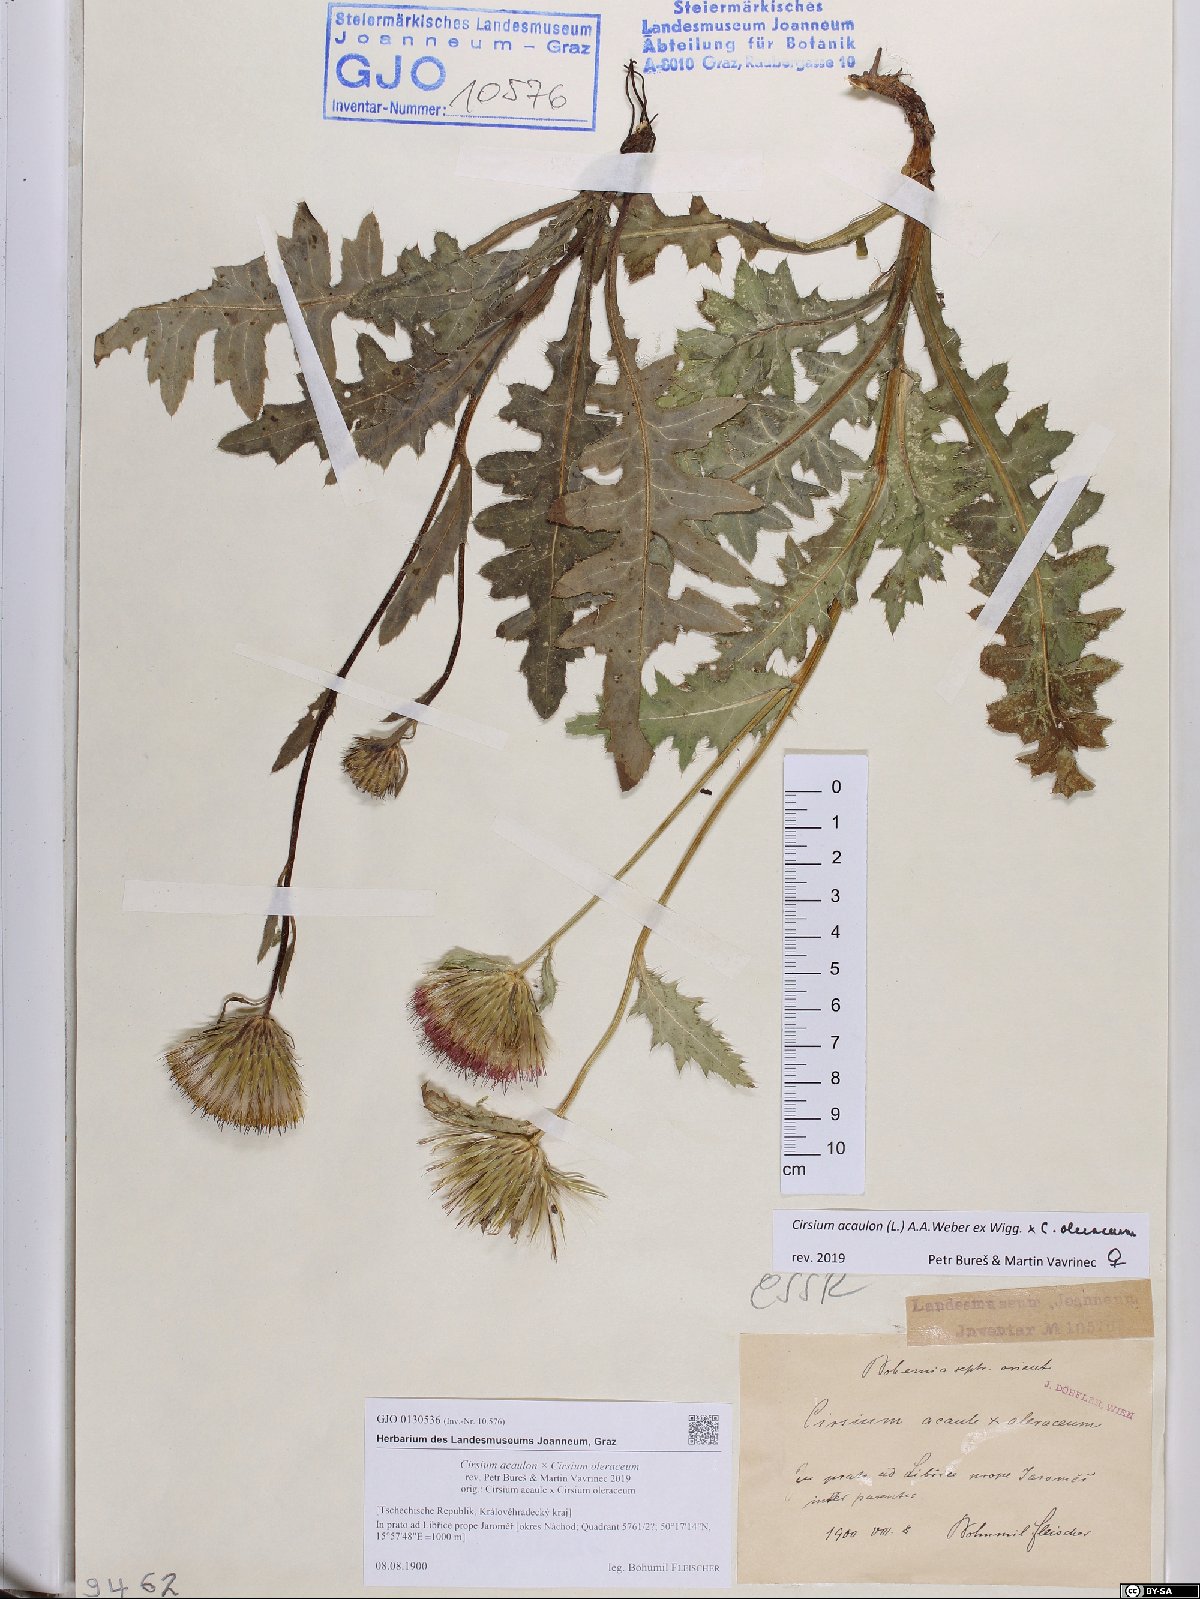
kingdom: Plantae
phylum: Tracheophyta
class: Magnoliopsida
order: Asterales
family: Asteraceae
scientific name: Asteraceae
